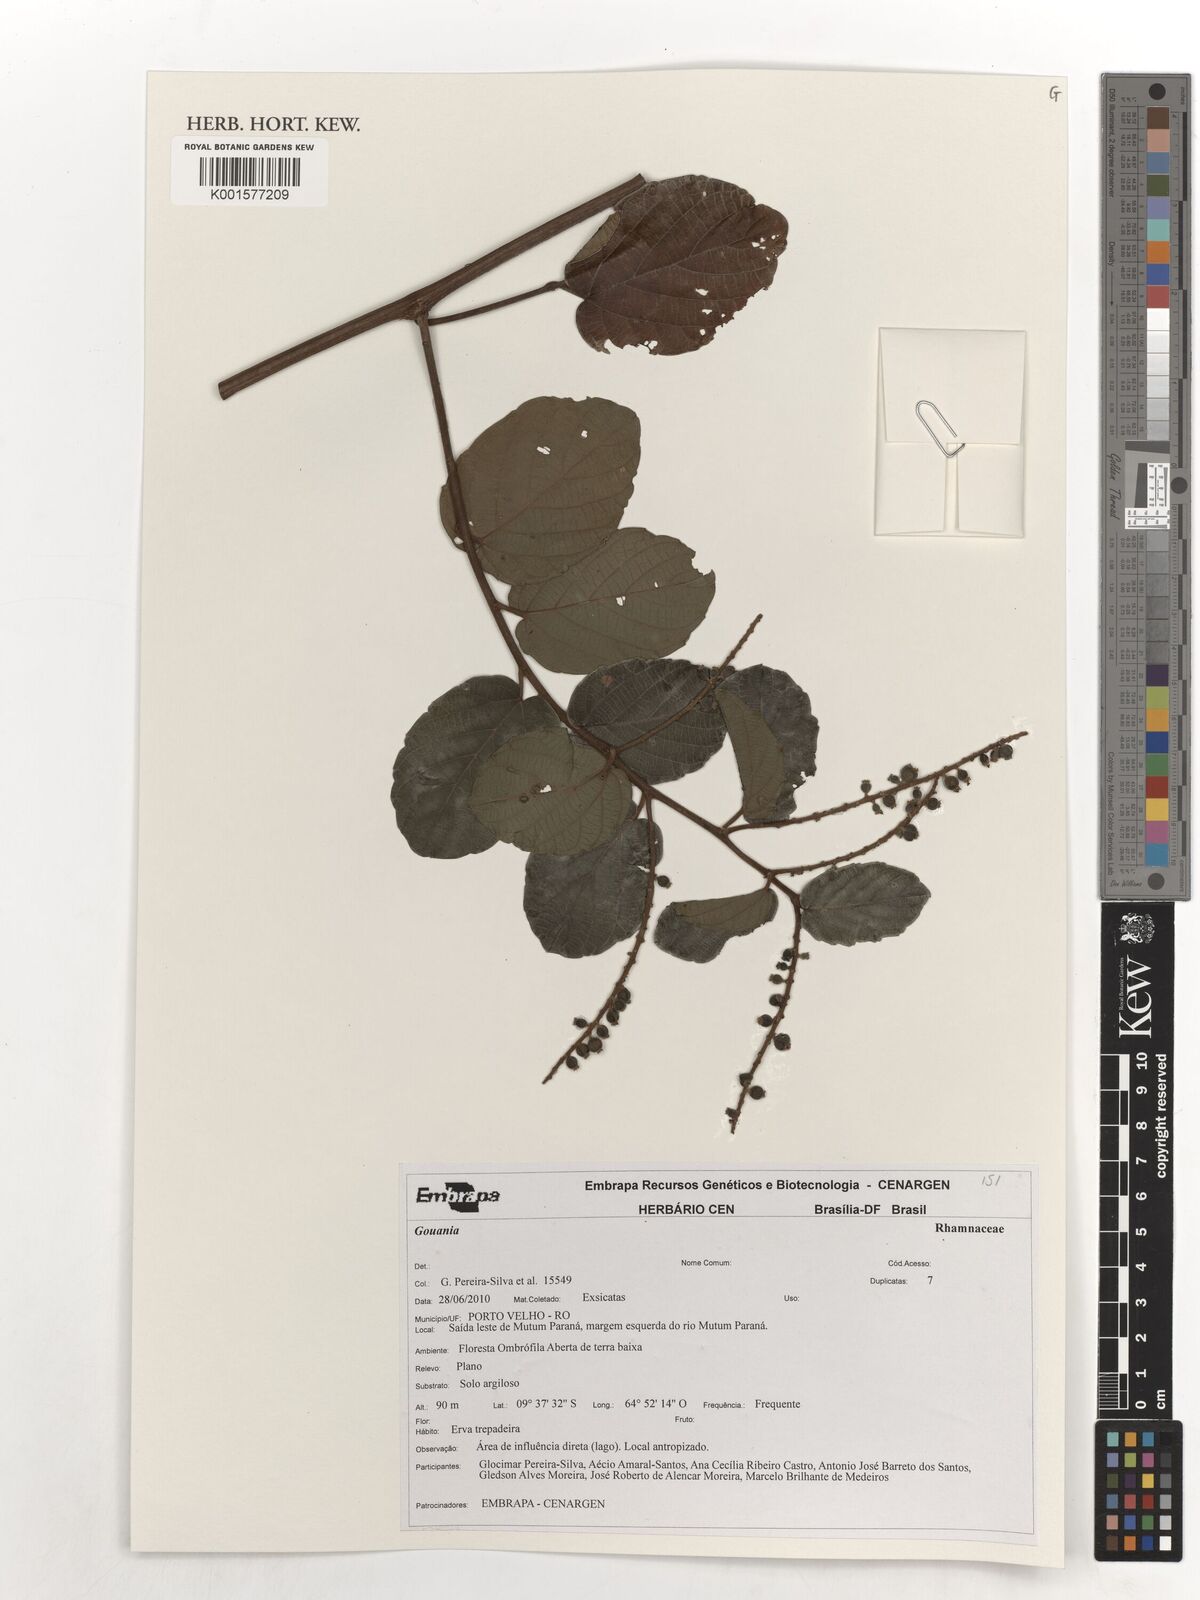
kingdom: Plantae
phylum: Tracheophyta
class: Magnoliopsida
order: Rosales
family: Rhamnaceae
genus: Gouania
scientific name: Gouania
